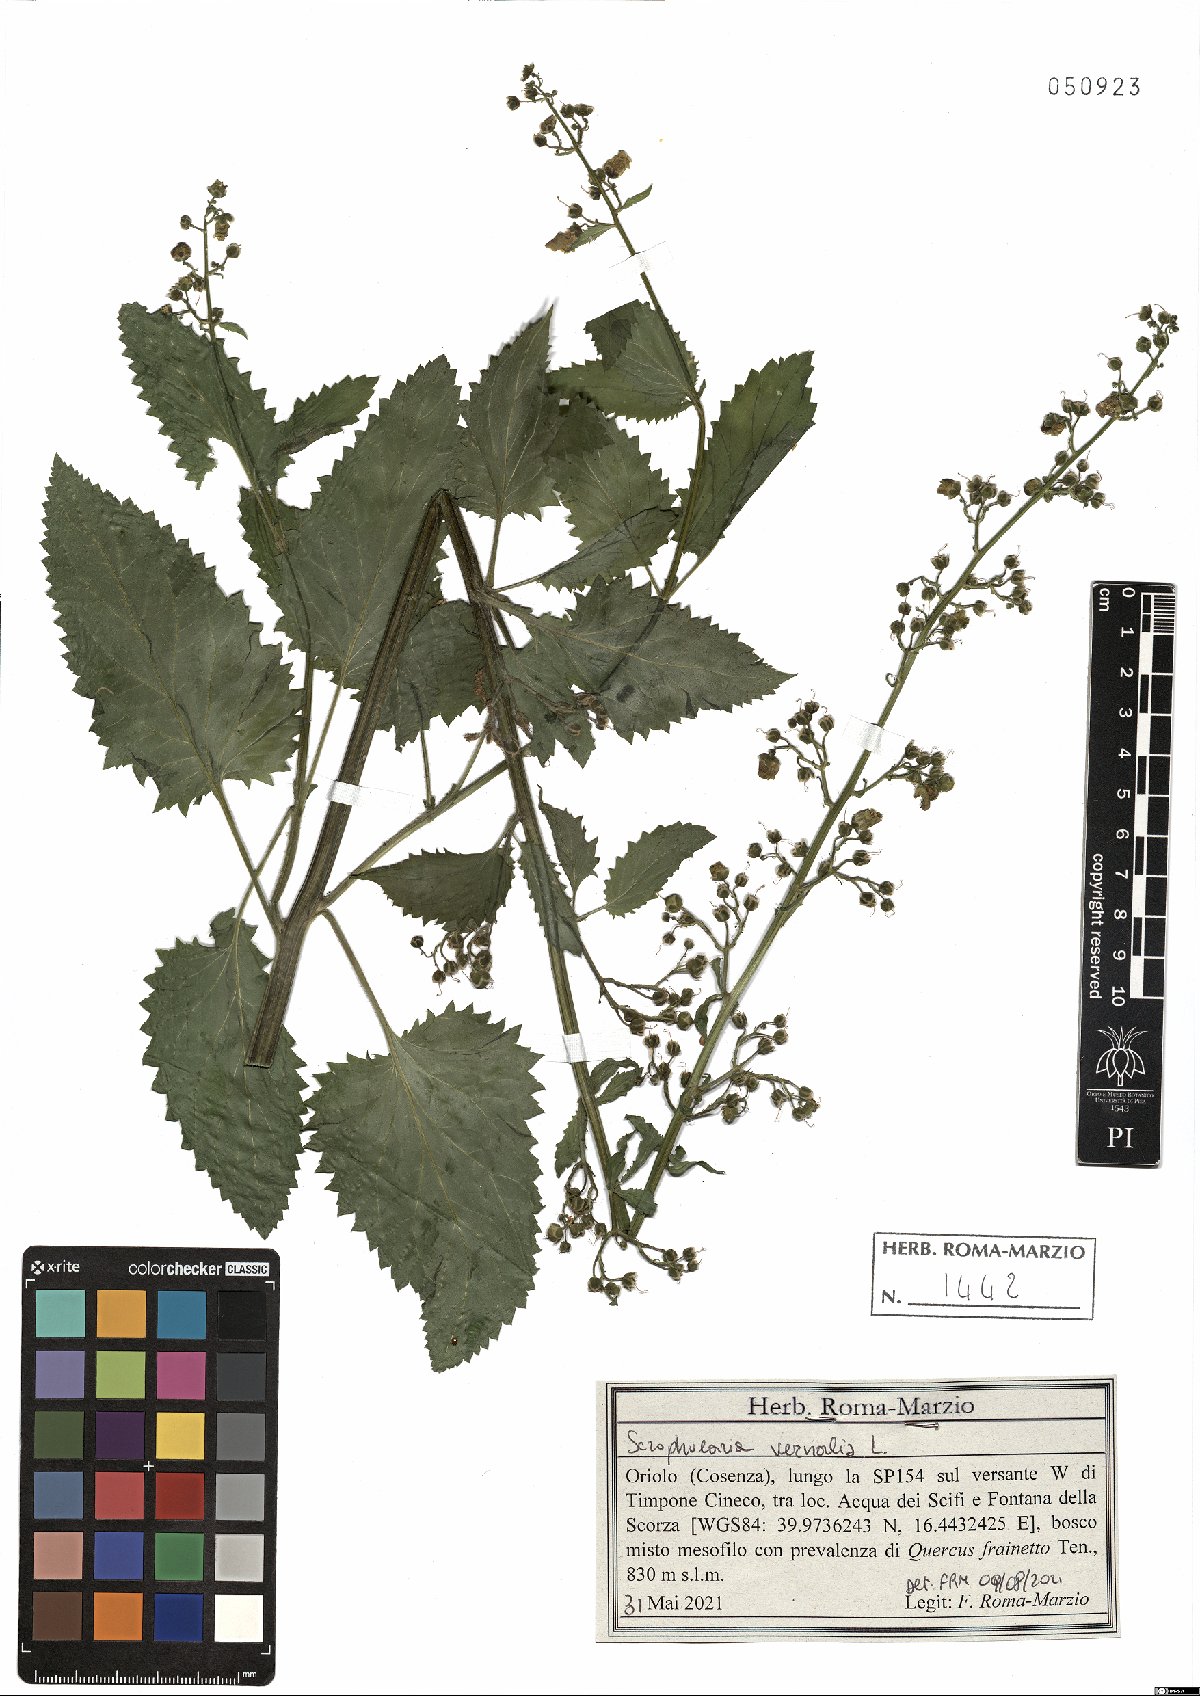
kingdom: Plantae
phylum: Tracheophyta
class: Magnoliopsida
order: Lamiales
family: Scrophulariaceae
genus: Scrophularia
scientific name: Scrophularia vernalis
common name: Yellow figwort
